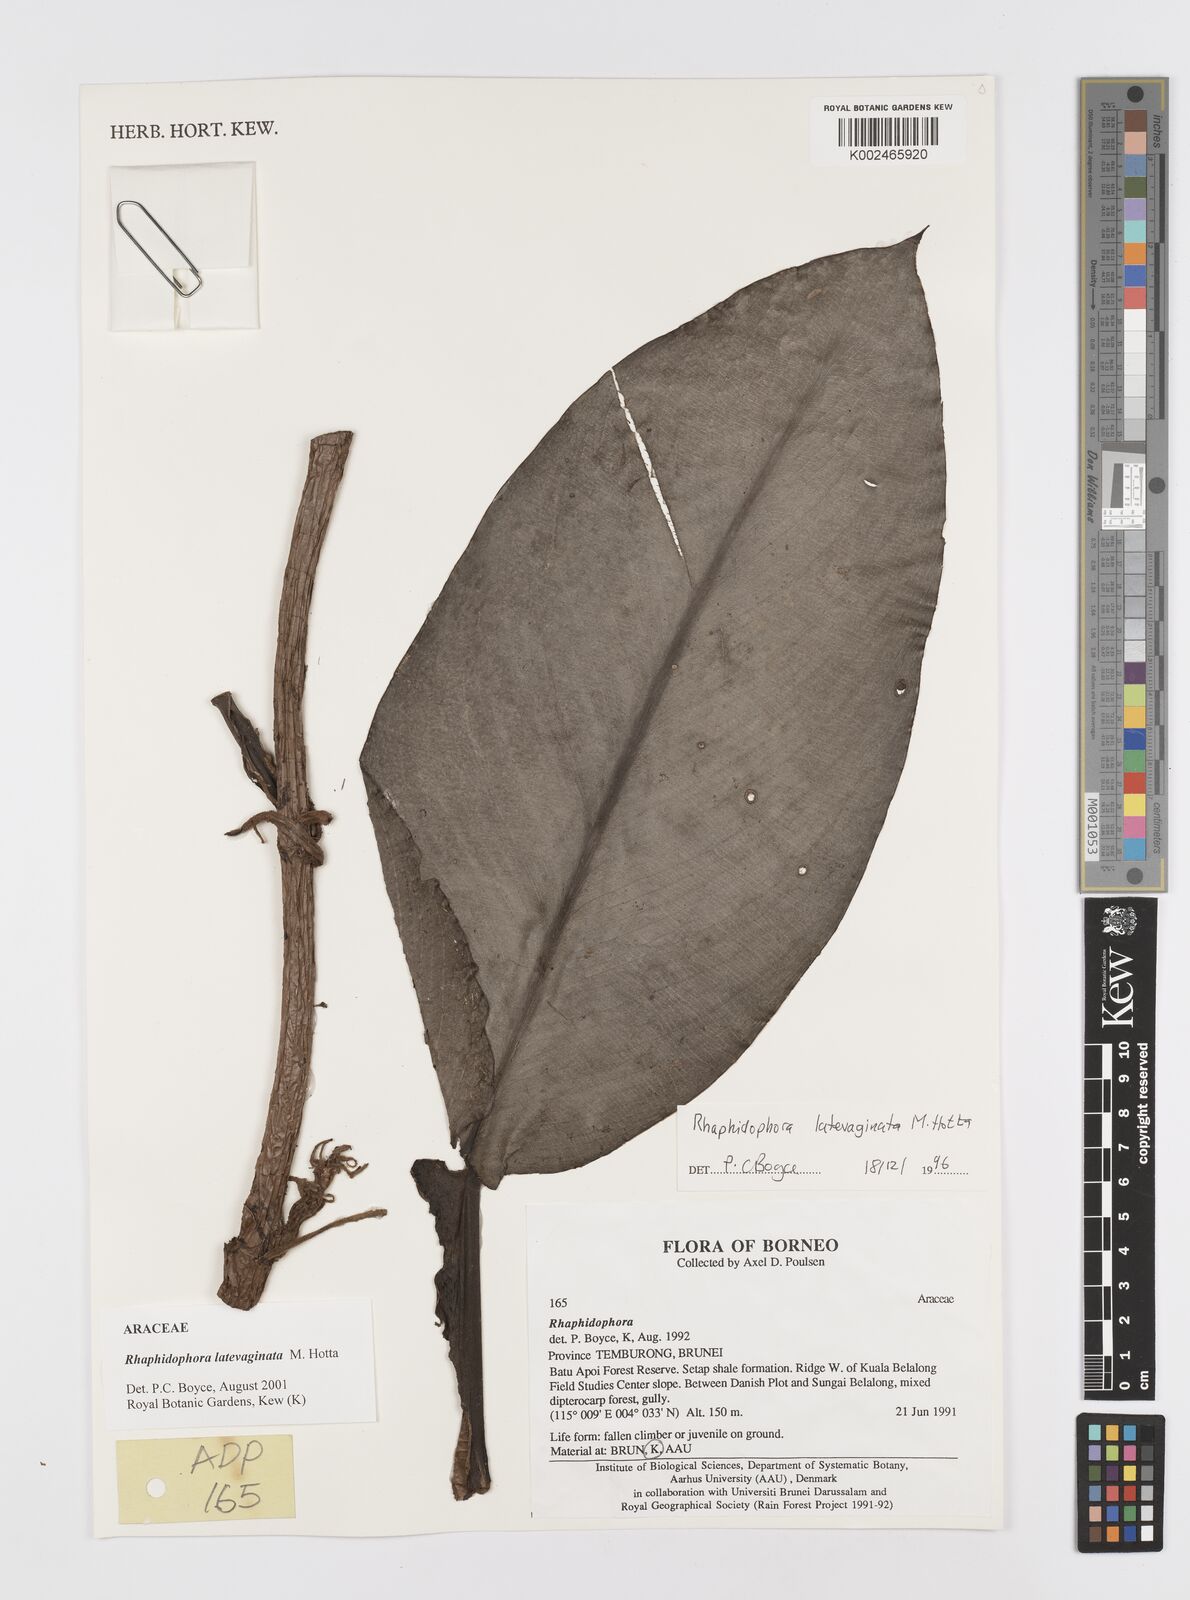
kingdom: Plantae
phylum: Tracheophyta
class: Liliopsida
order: Alismatales
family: Araceae
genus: Rhaphidophora
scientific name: Rhaphidophora latevaginata
